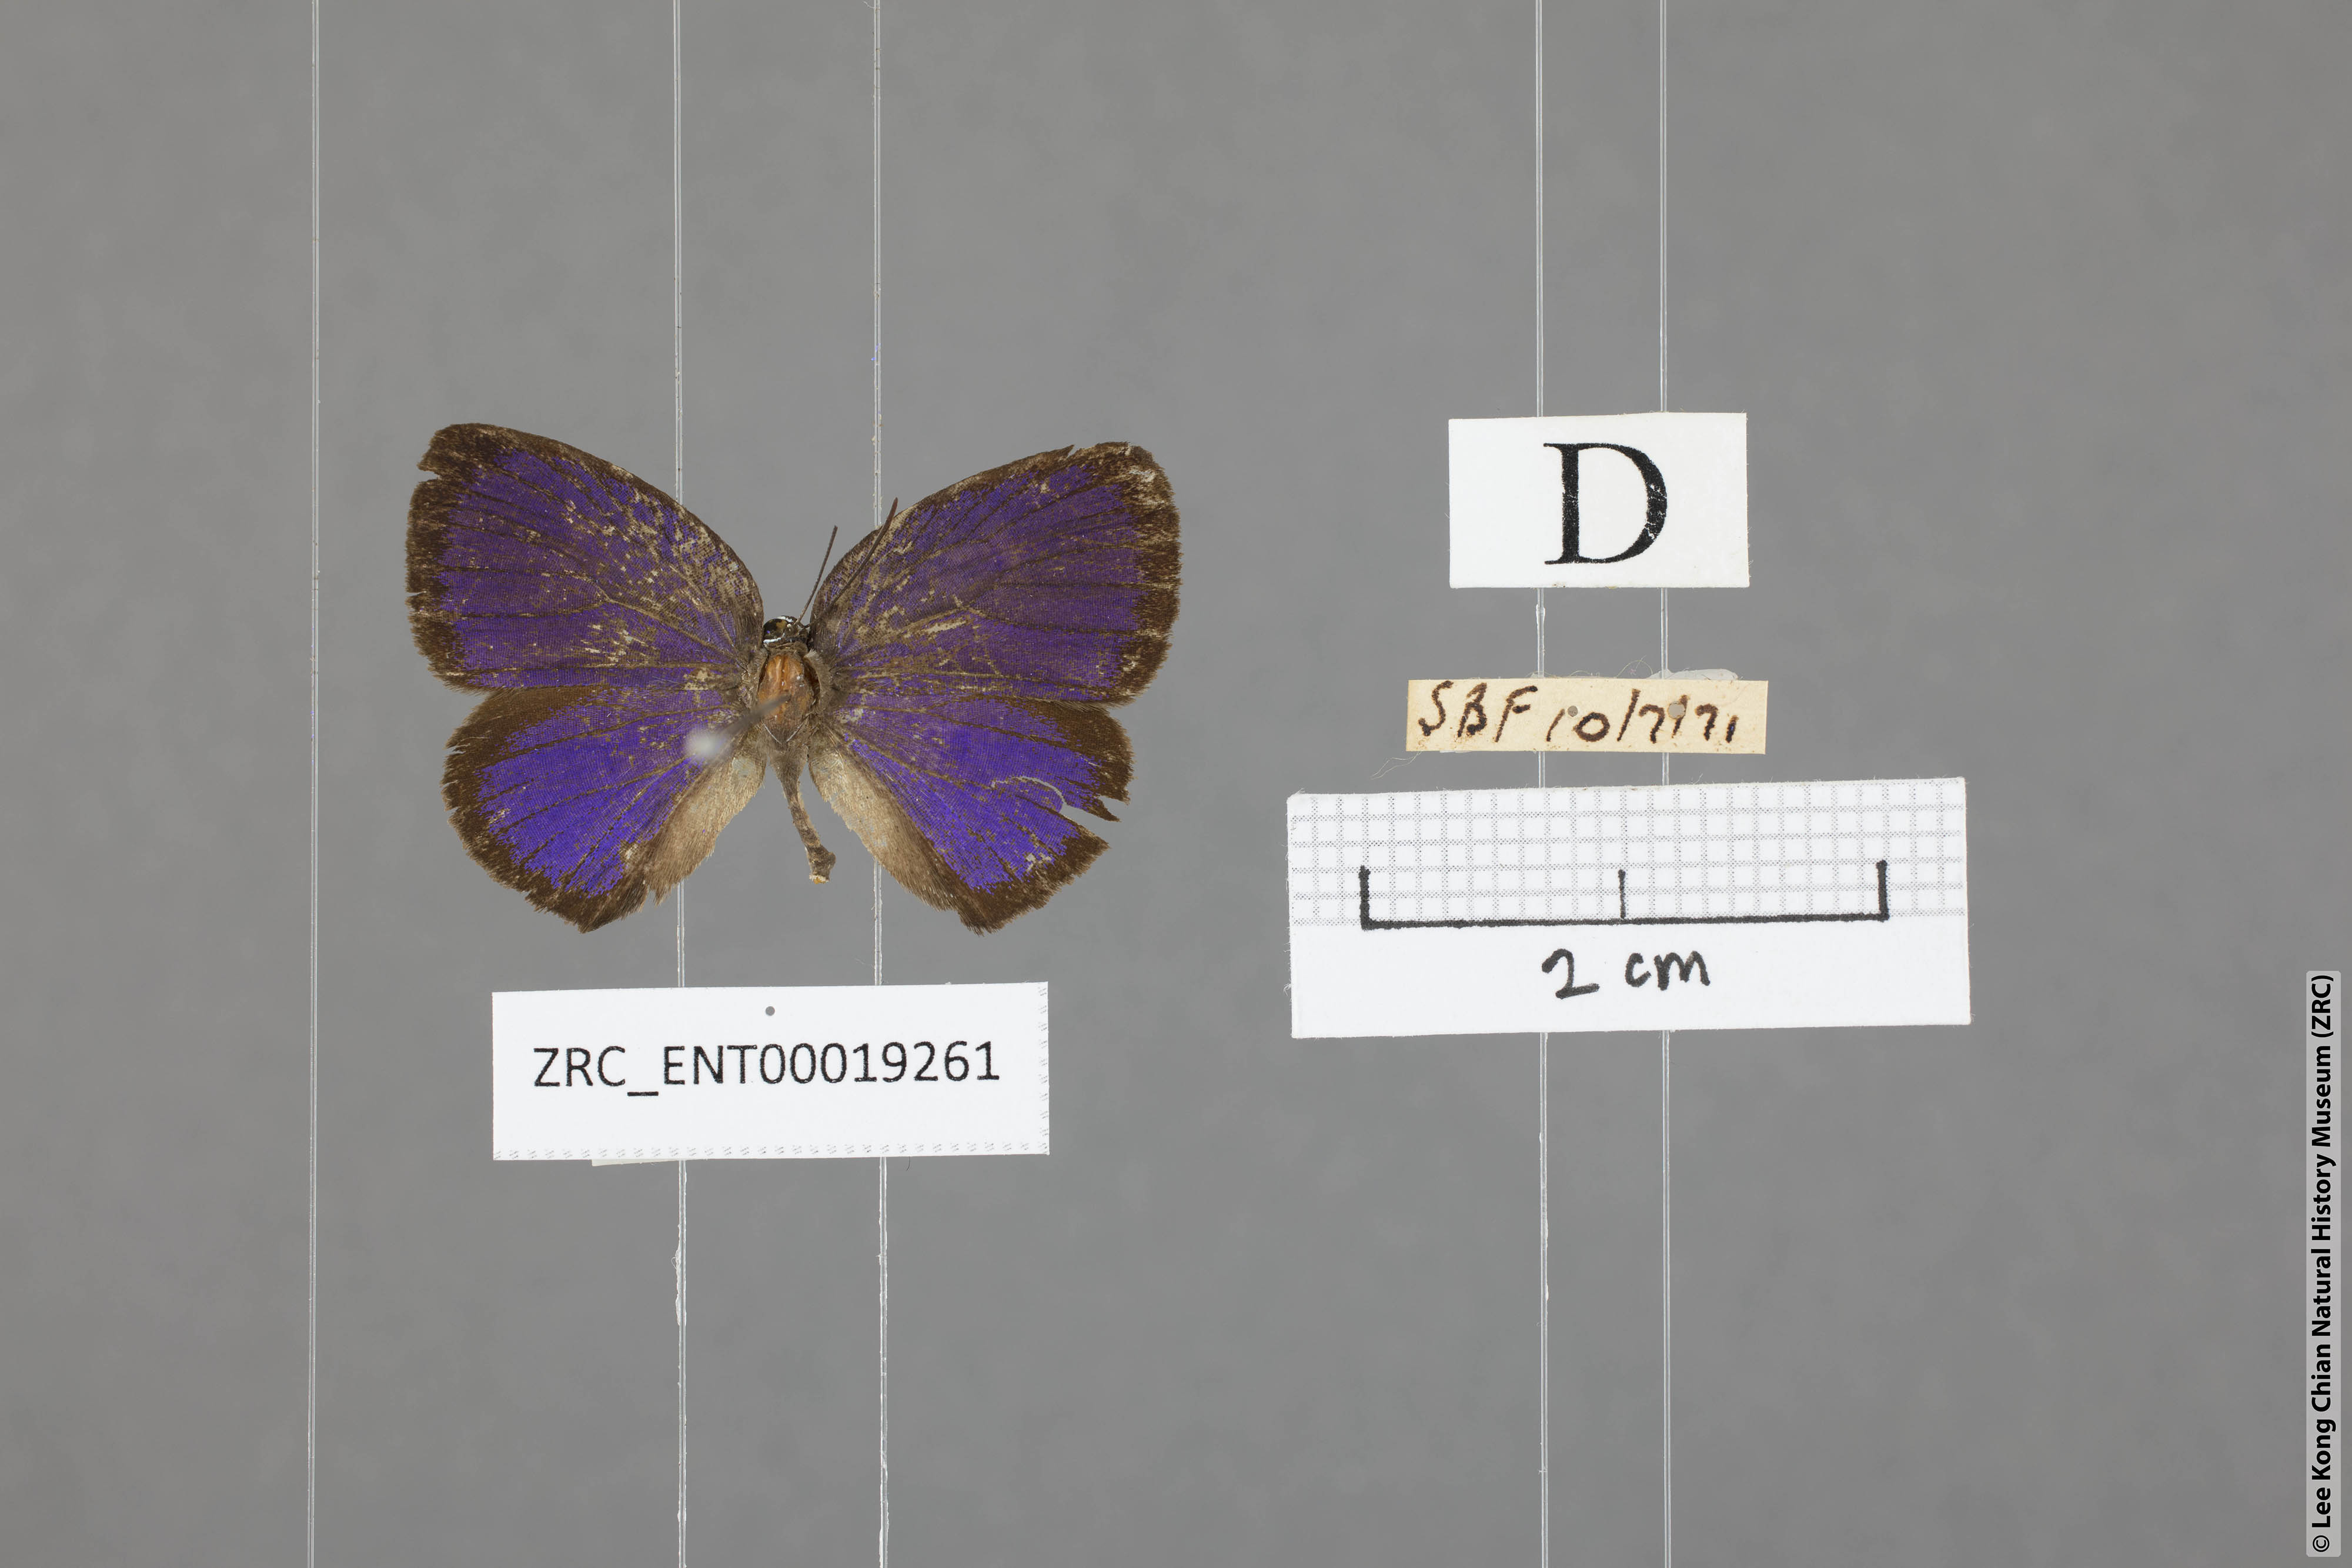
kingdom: Animalia
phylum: Arthropoda
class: Insecta
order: Lepidoptera
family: Lycaenidae
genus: Arhopala
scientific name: Arhopala avathina
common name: Lunulate yellow oakblue
